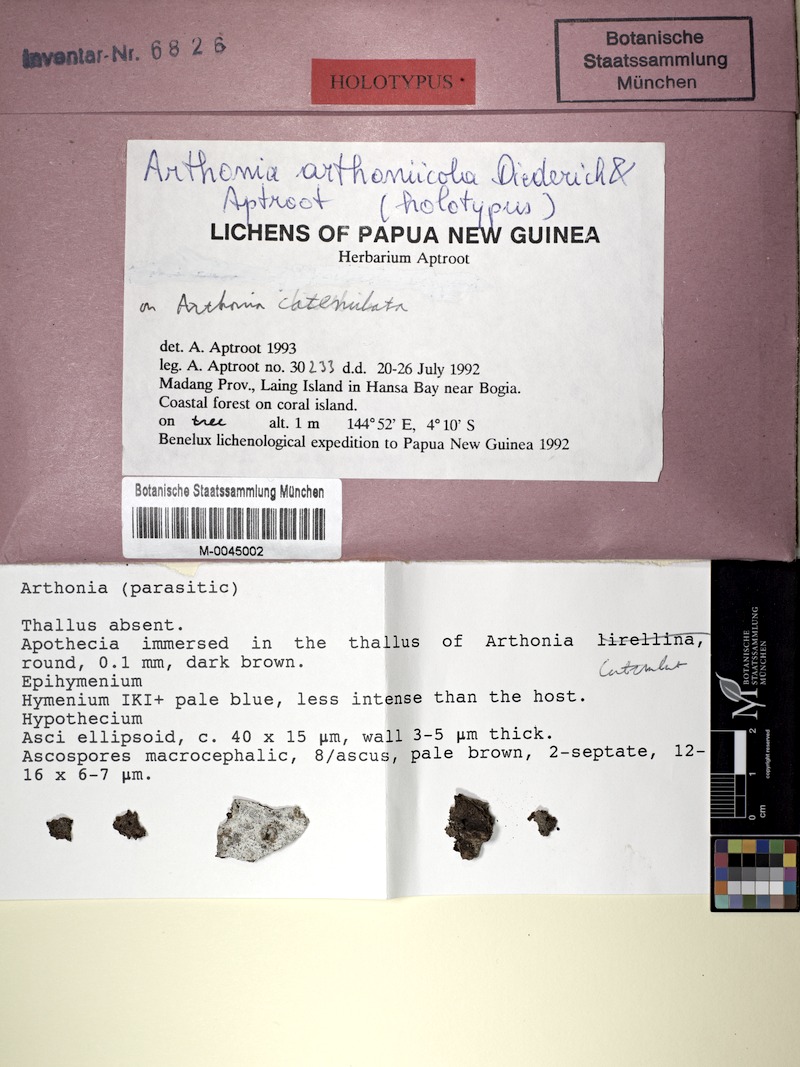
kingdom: Fungi
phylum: Ascomycota
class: Arthoniomycetes
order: Arthoniales
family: Arthoniaceae
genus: Arthonia
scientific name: Arthonia arthoniicola
